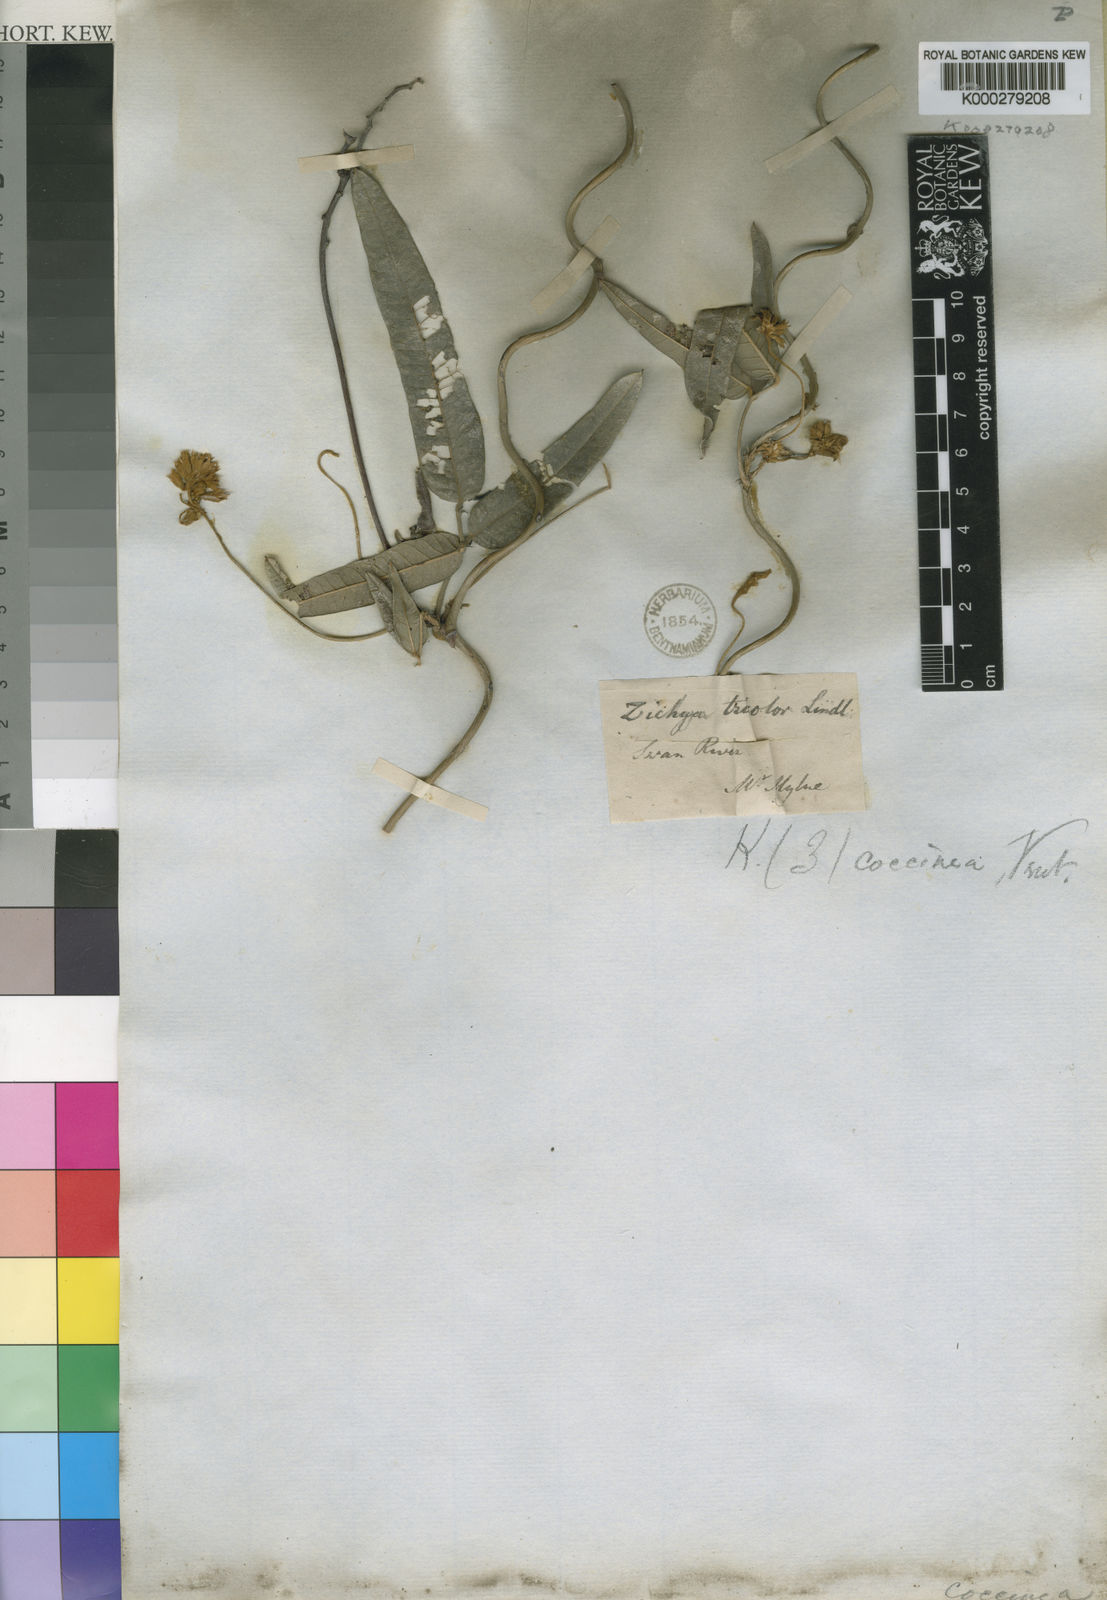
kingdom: Plantae
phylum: Tracheophyta
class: Magnoliopsida
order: Fabales
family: Fabaceae
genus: Kennedia
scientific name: Kennedia coccinea
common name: Coralvine
